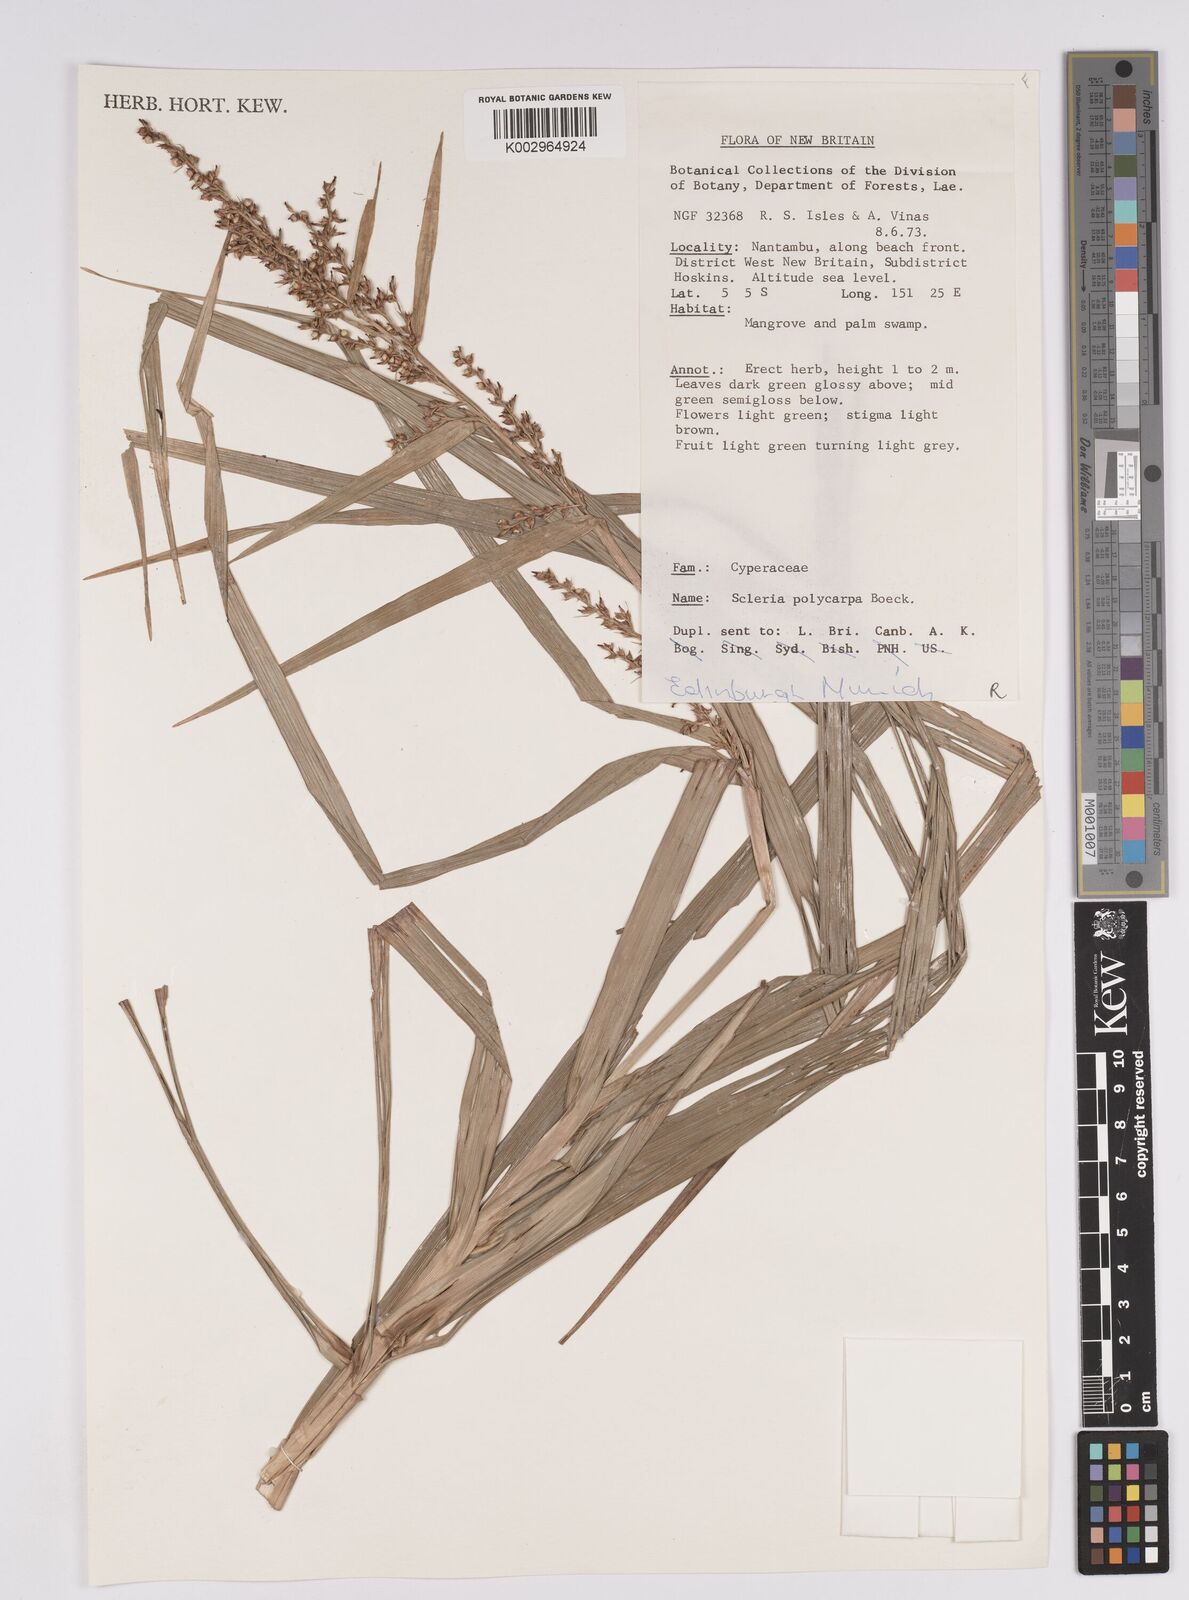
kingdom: Plantae
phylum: Tracheophyta
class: Liliopsida
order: Poales
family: Cyperaceae
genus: Scleria
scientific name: Scleria polycarpa
